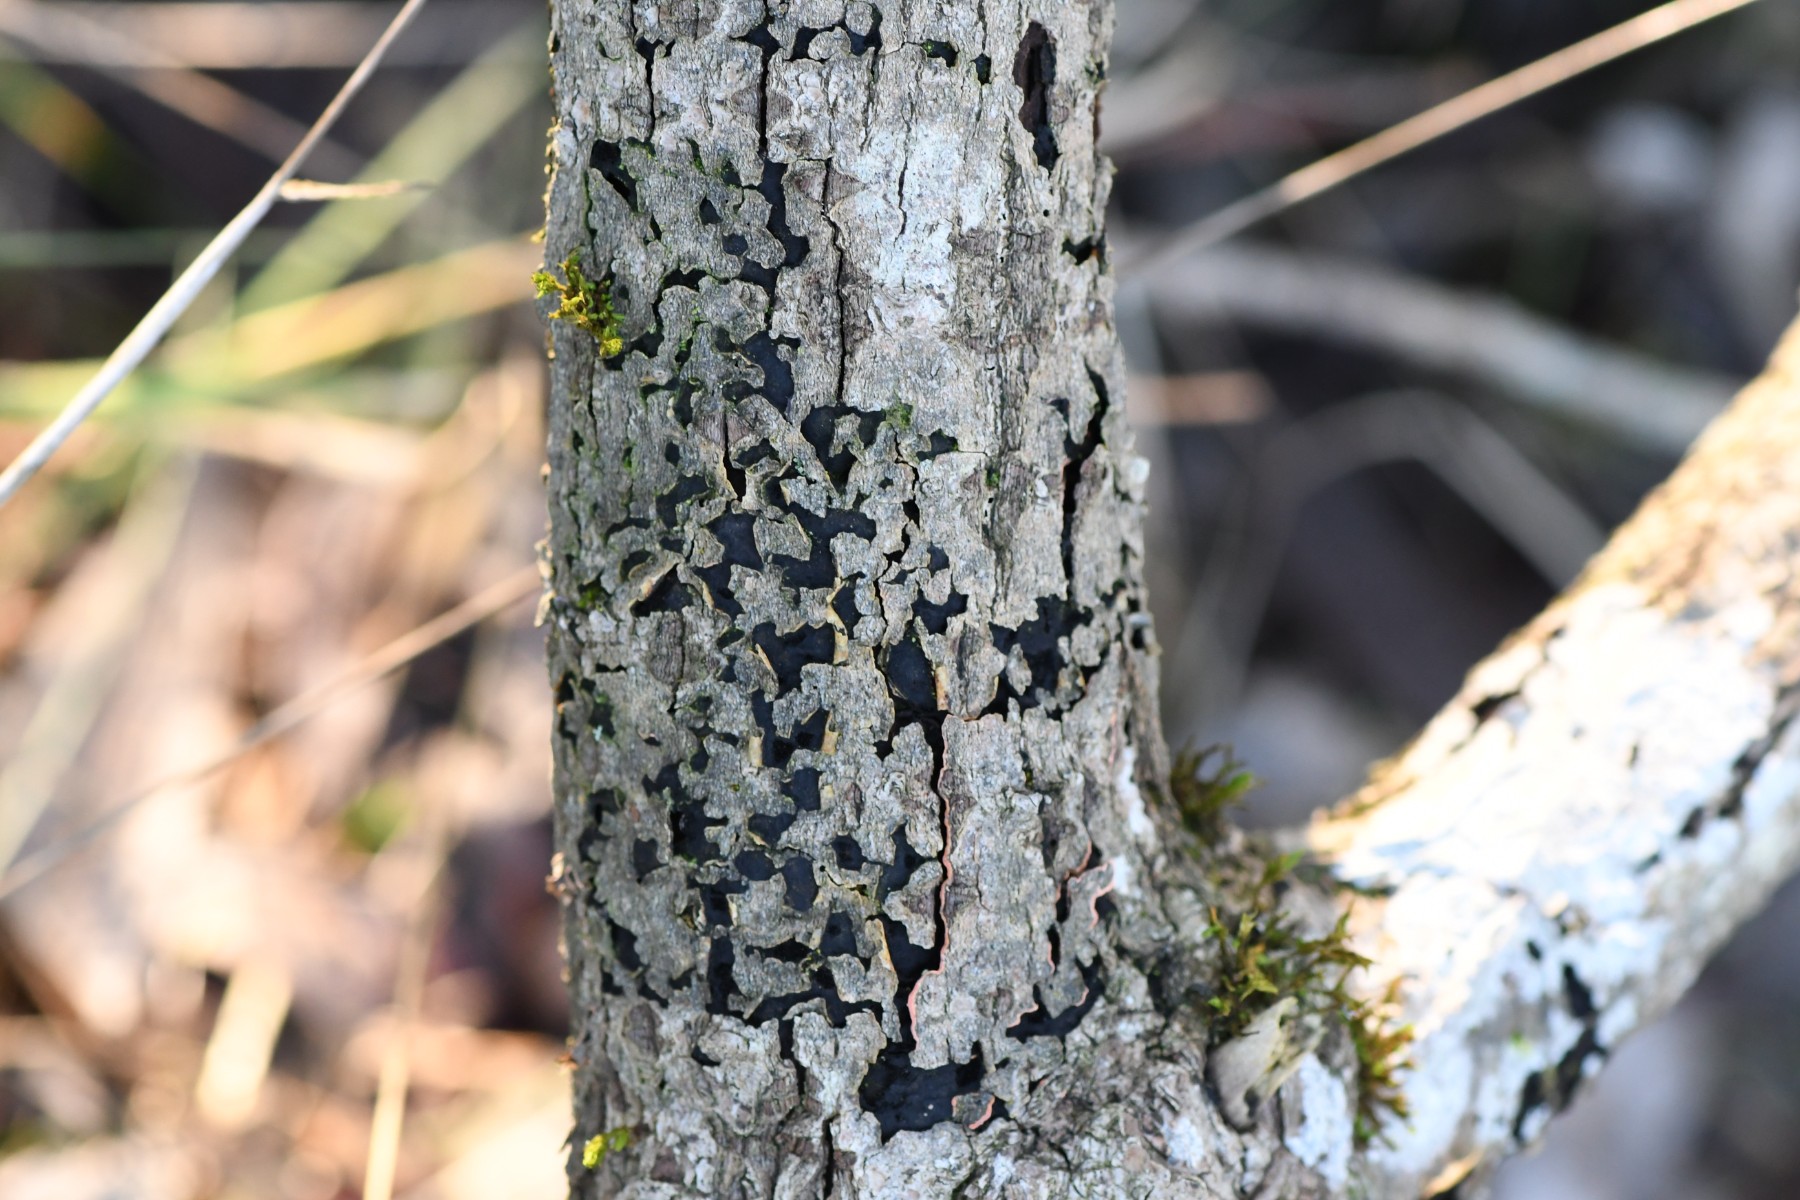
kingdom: Fungi
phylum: Ascomycota
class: Sordariomycetes
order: Xylariales
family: Diatrypaceae
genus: Diatrype
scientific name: Diatrype bullata
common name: pile-kulskorpe
